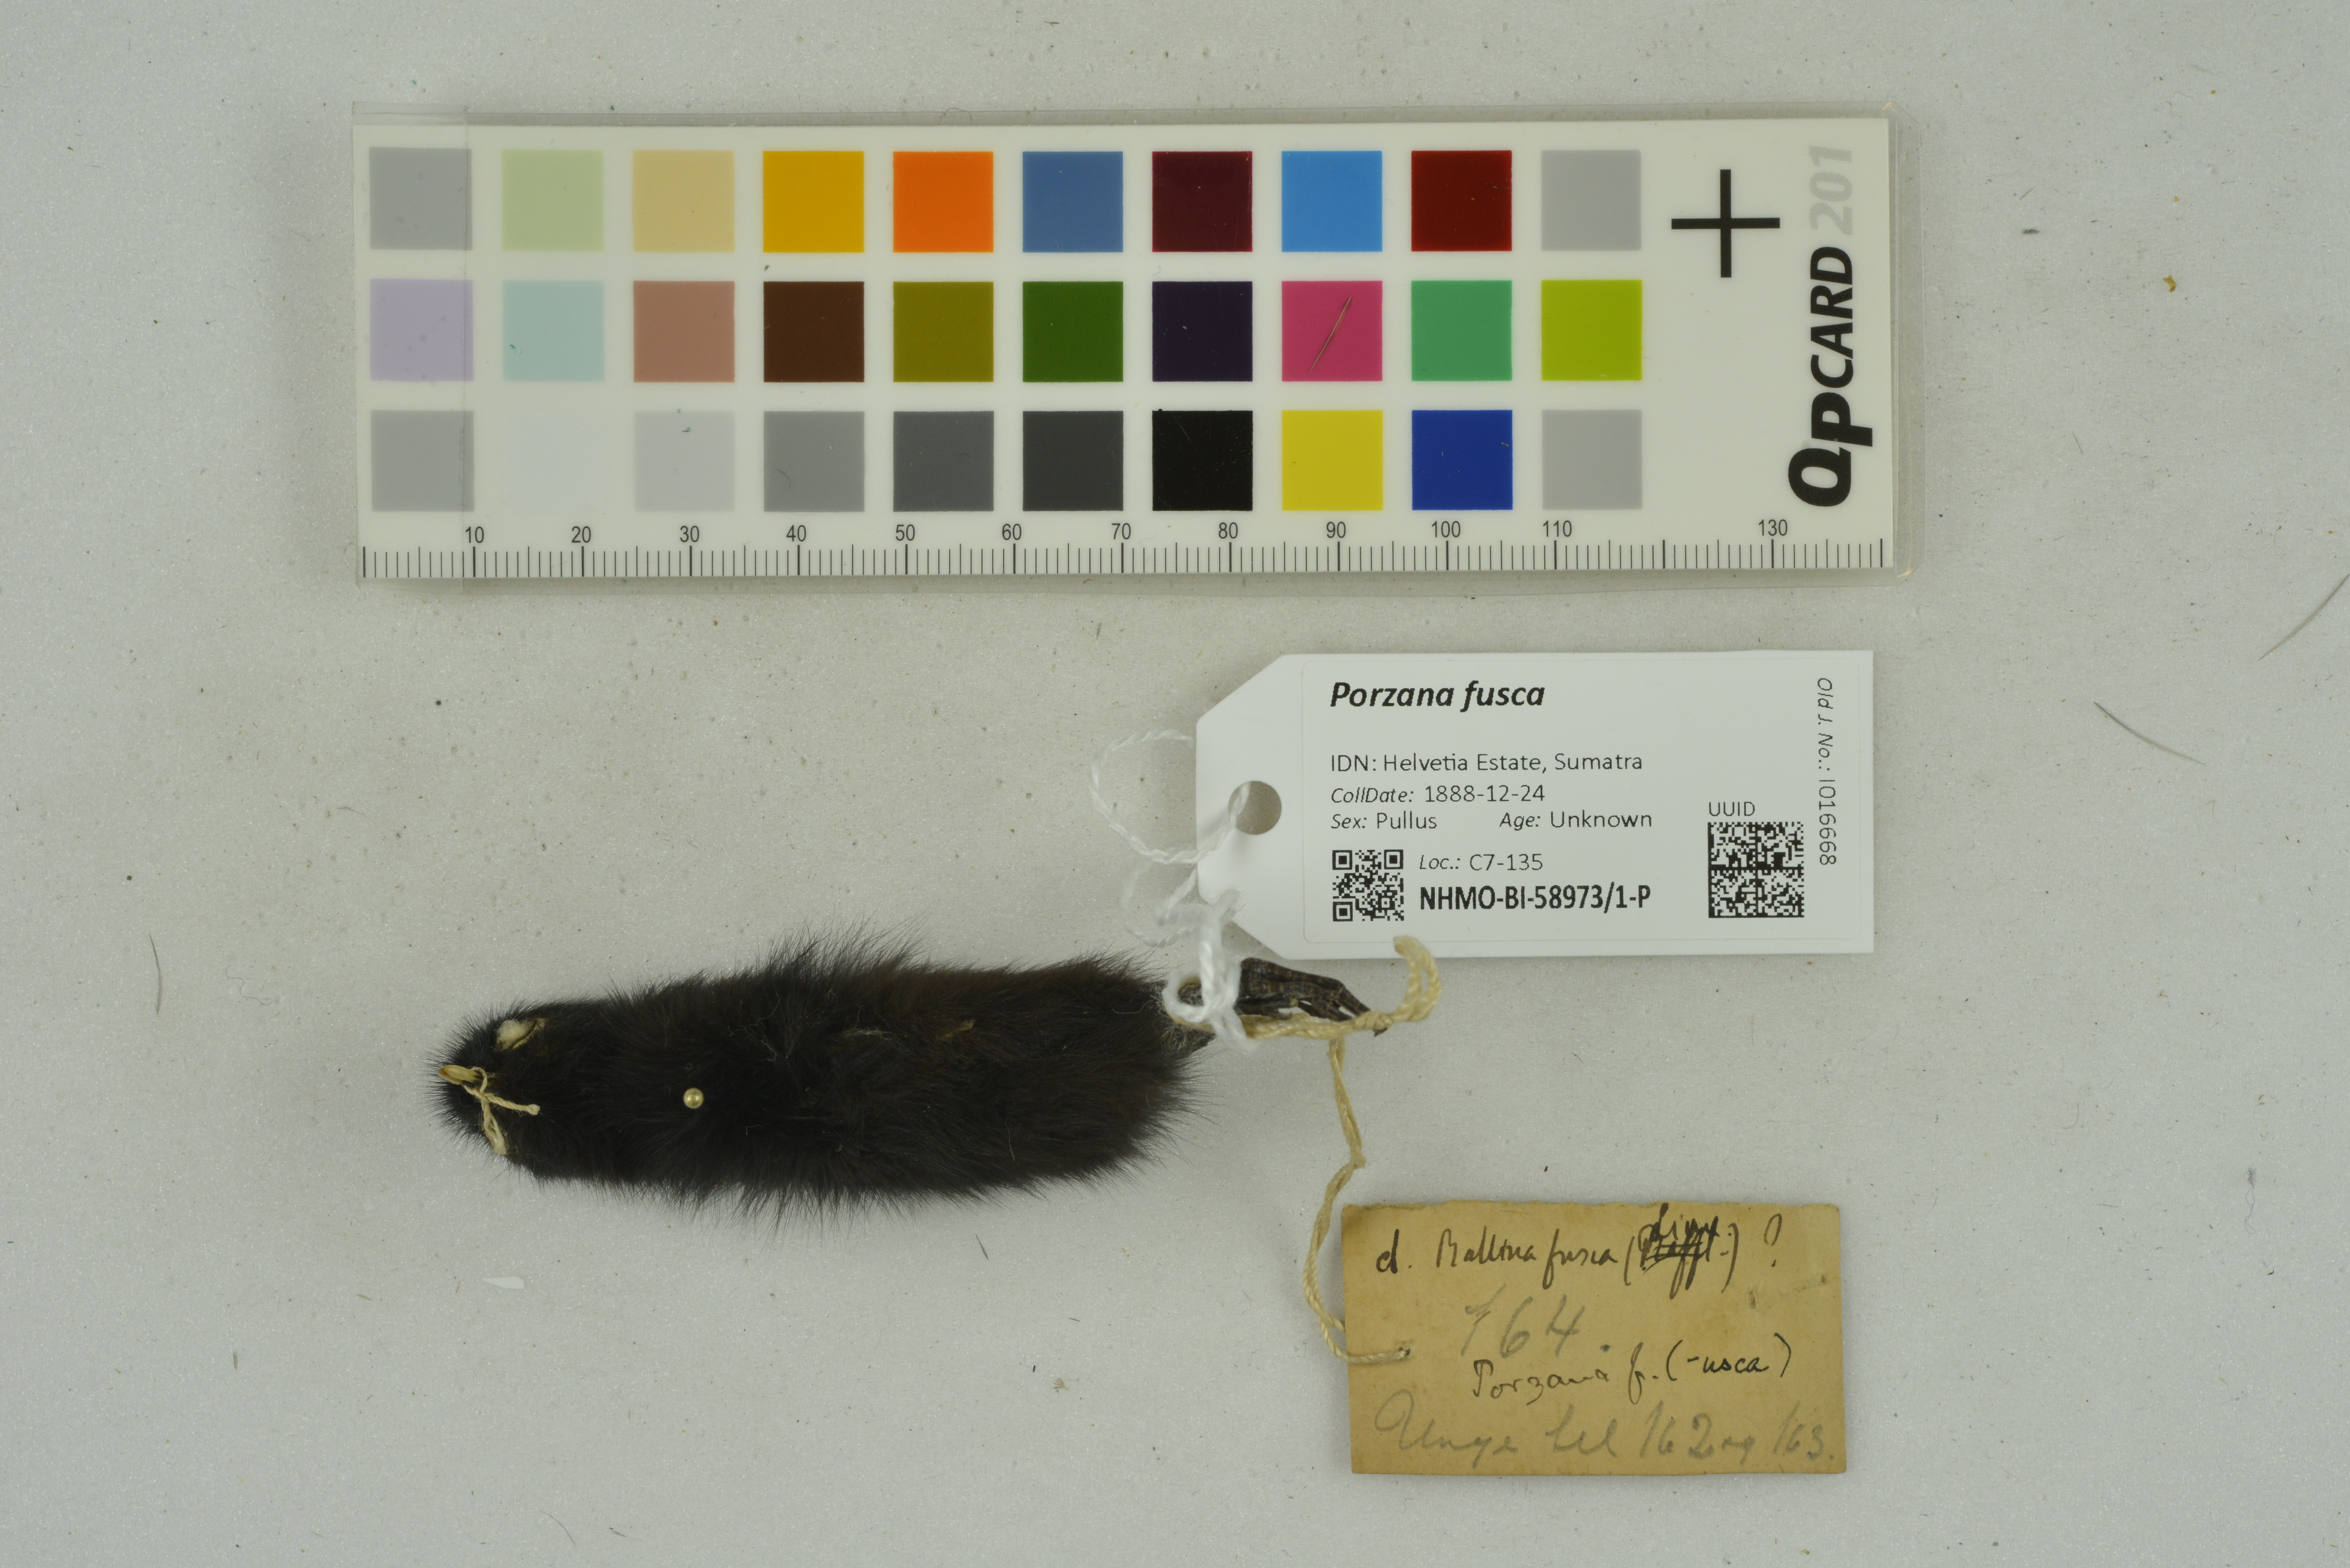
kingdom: Animalia
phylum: Chordata
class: Aves
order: Gruiformes
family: Rallidae
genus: Porzana
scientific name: Porzana fusca
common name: Ruddy-breasted crake
